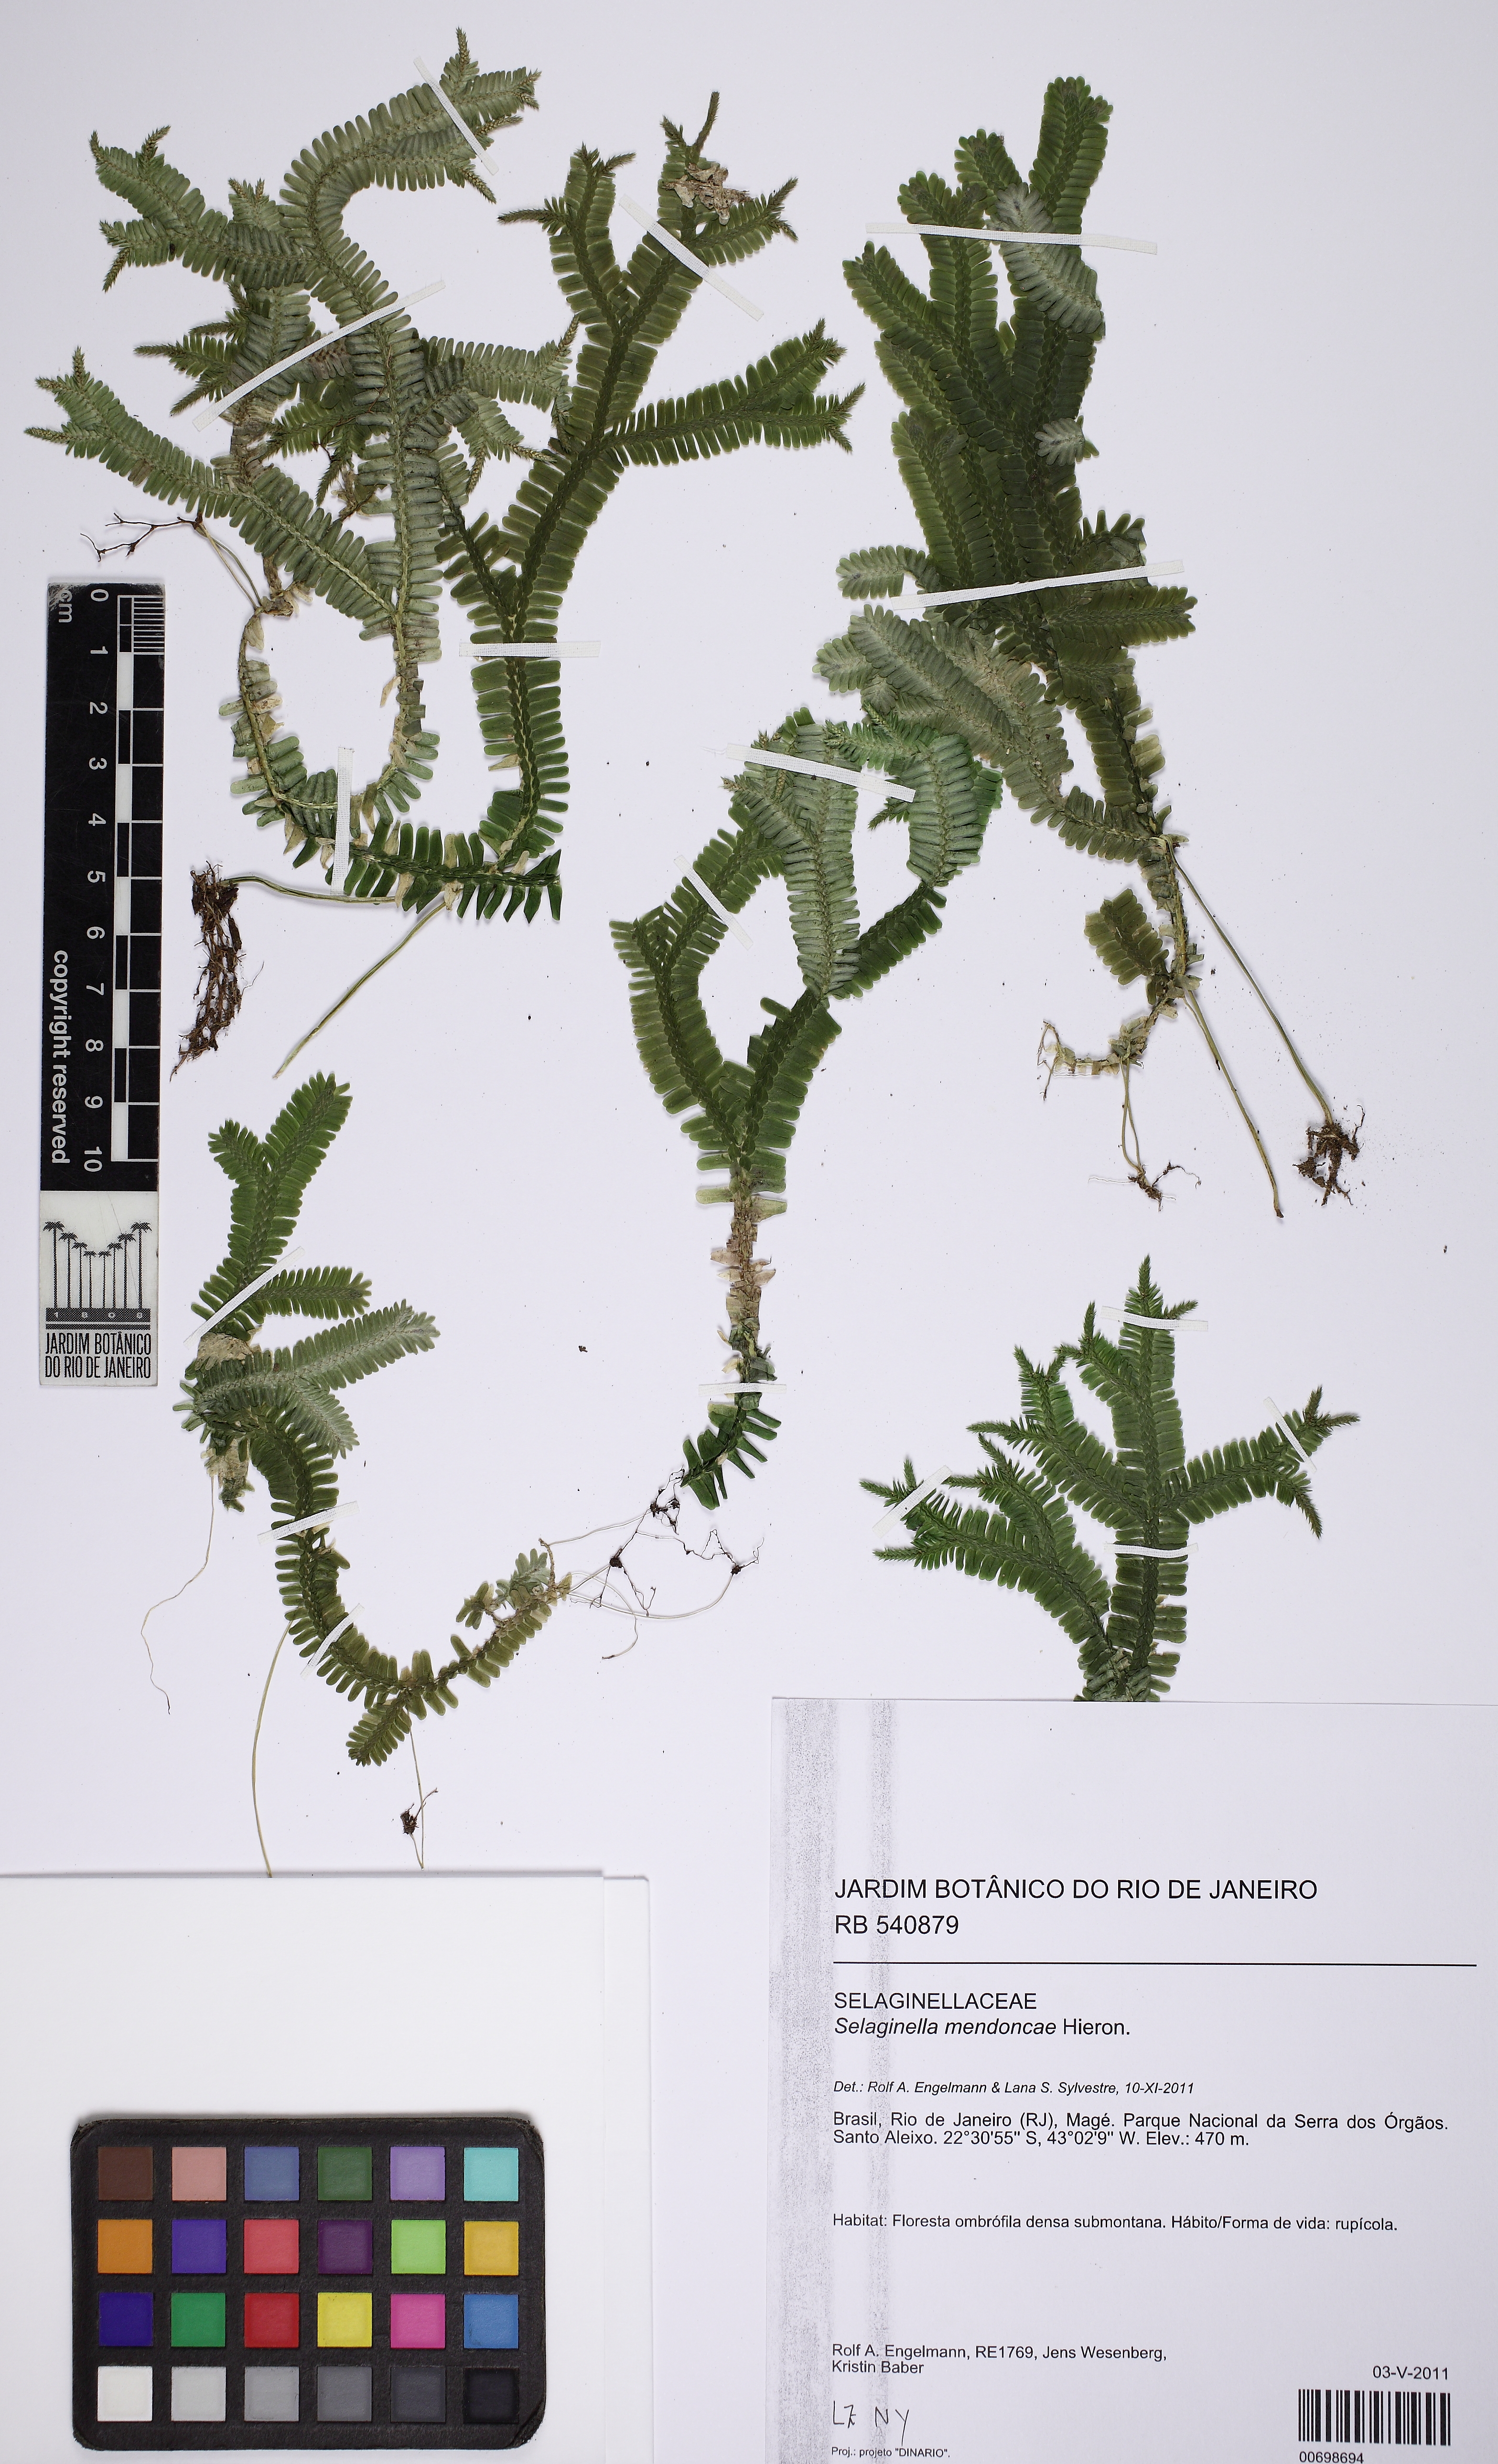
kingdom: Plantae
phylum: Tracheophyta
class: Lycopodiopsida
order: Selaginellales
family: Selaginellaceae
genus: Selaginella
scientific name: Selaginella mendoncae
